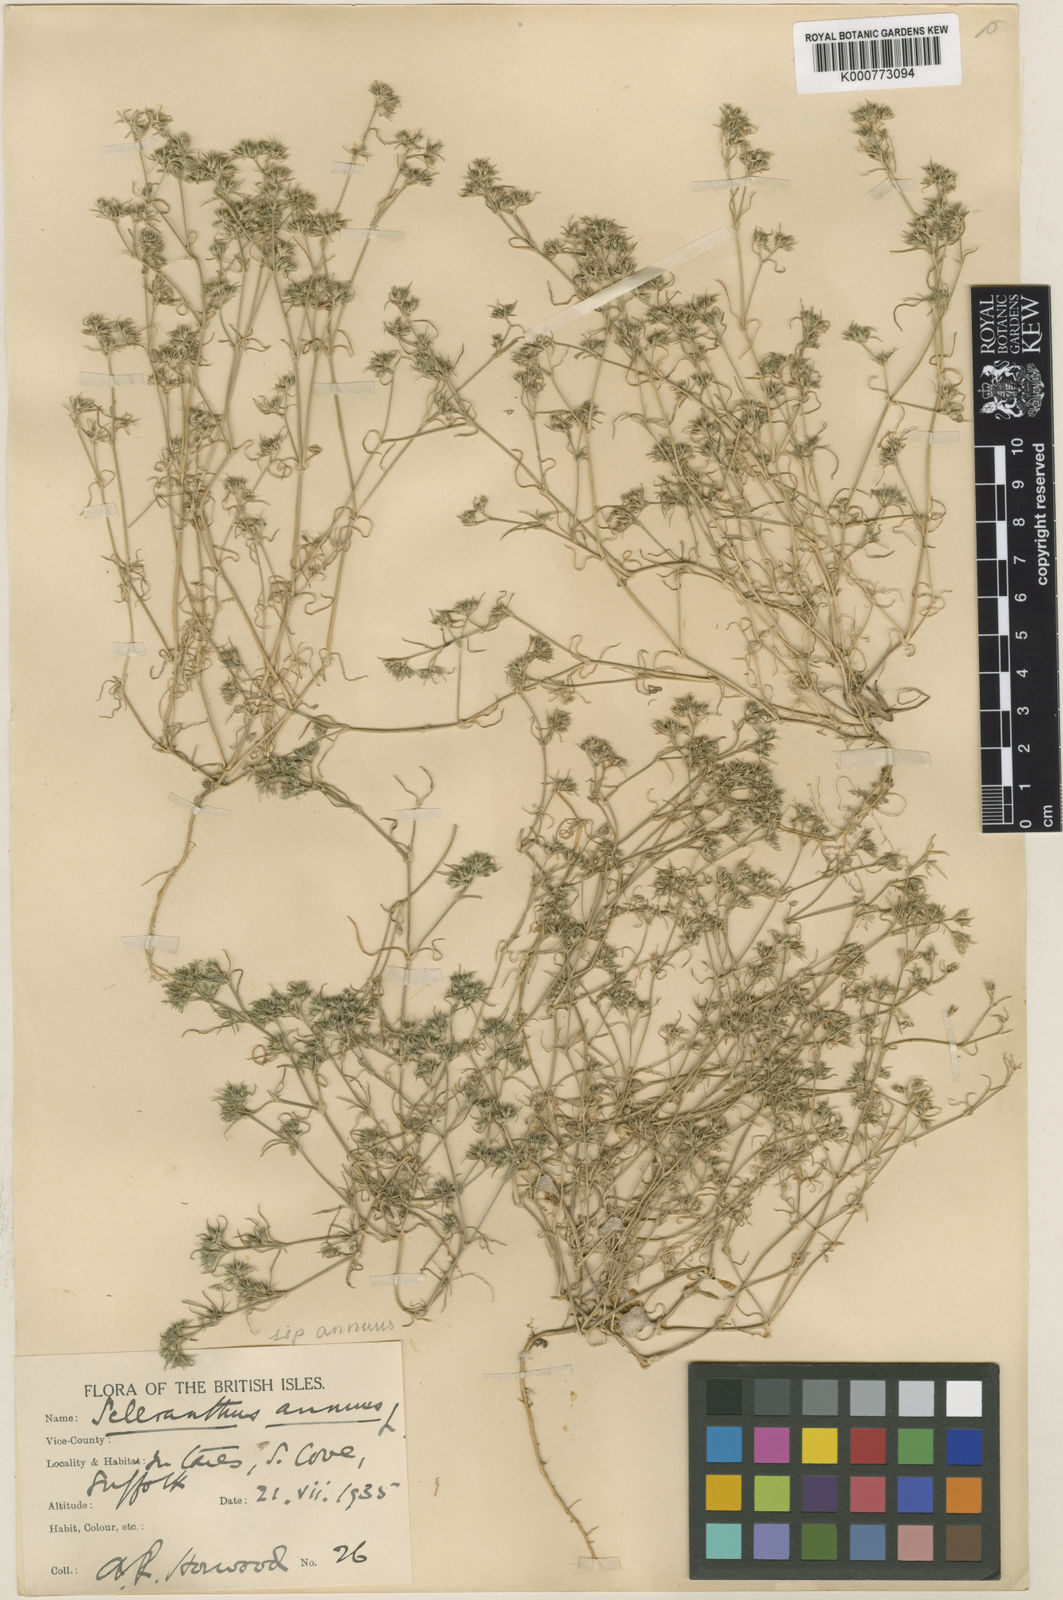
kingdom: Plantae
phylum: Tracheophyta
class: Magnoliopsida
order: Caryophyllales
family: Caryophyllaceae
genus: Scleranthus
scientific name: Scleranthus annuus
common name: Annual knawel
